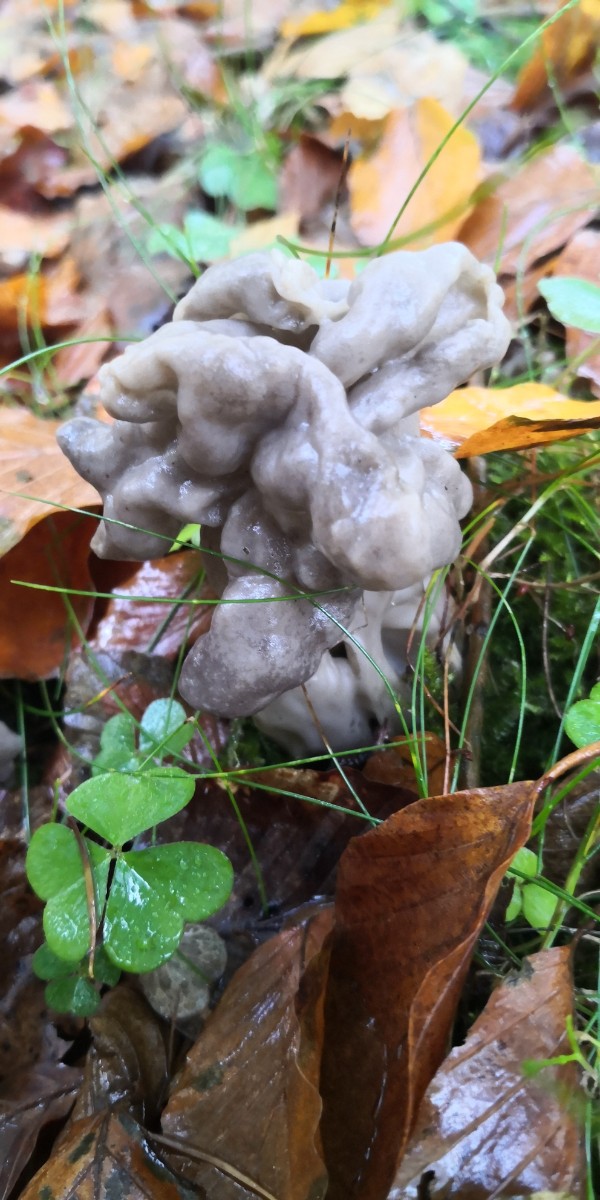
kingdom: Fungi
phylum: Ascomycota
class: Pezizomycetes
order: Pezizales
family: Helvellaceae
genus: Helvella
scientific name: Helvella lacunosa
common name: grubet foldhat
